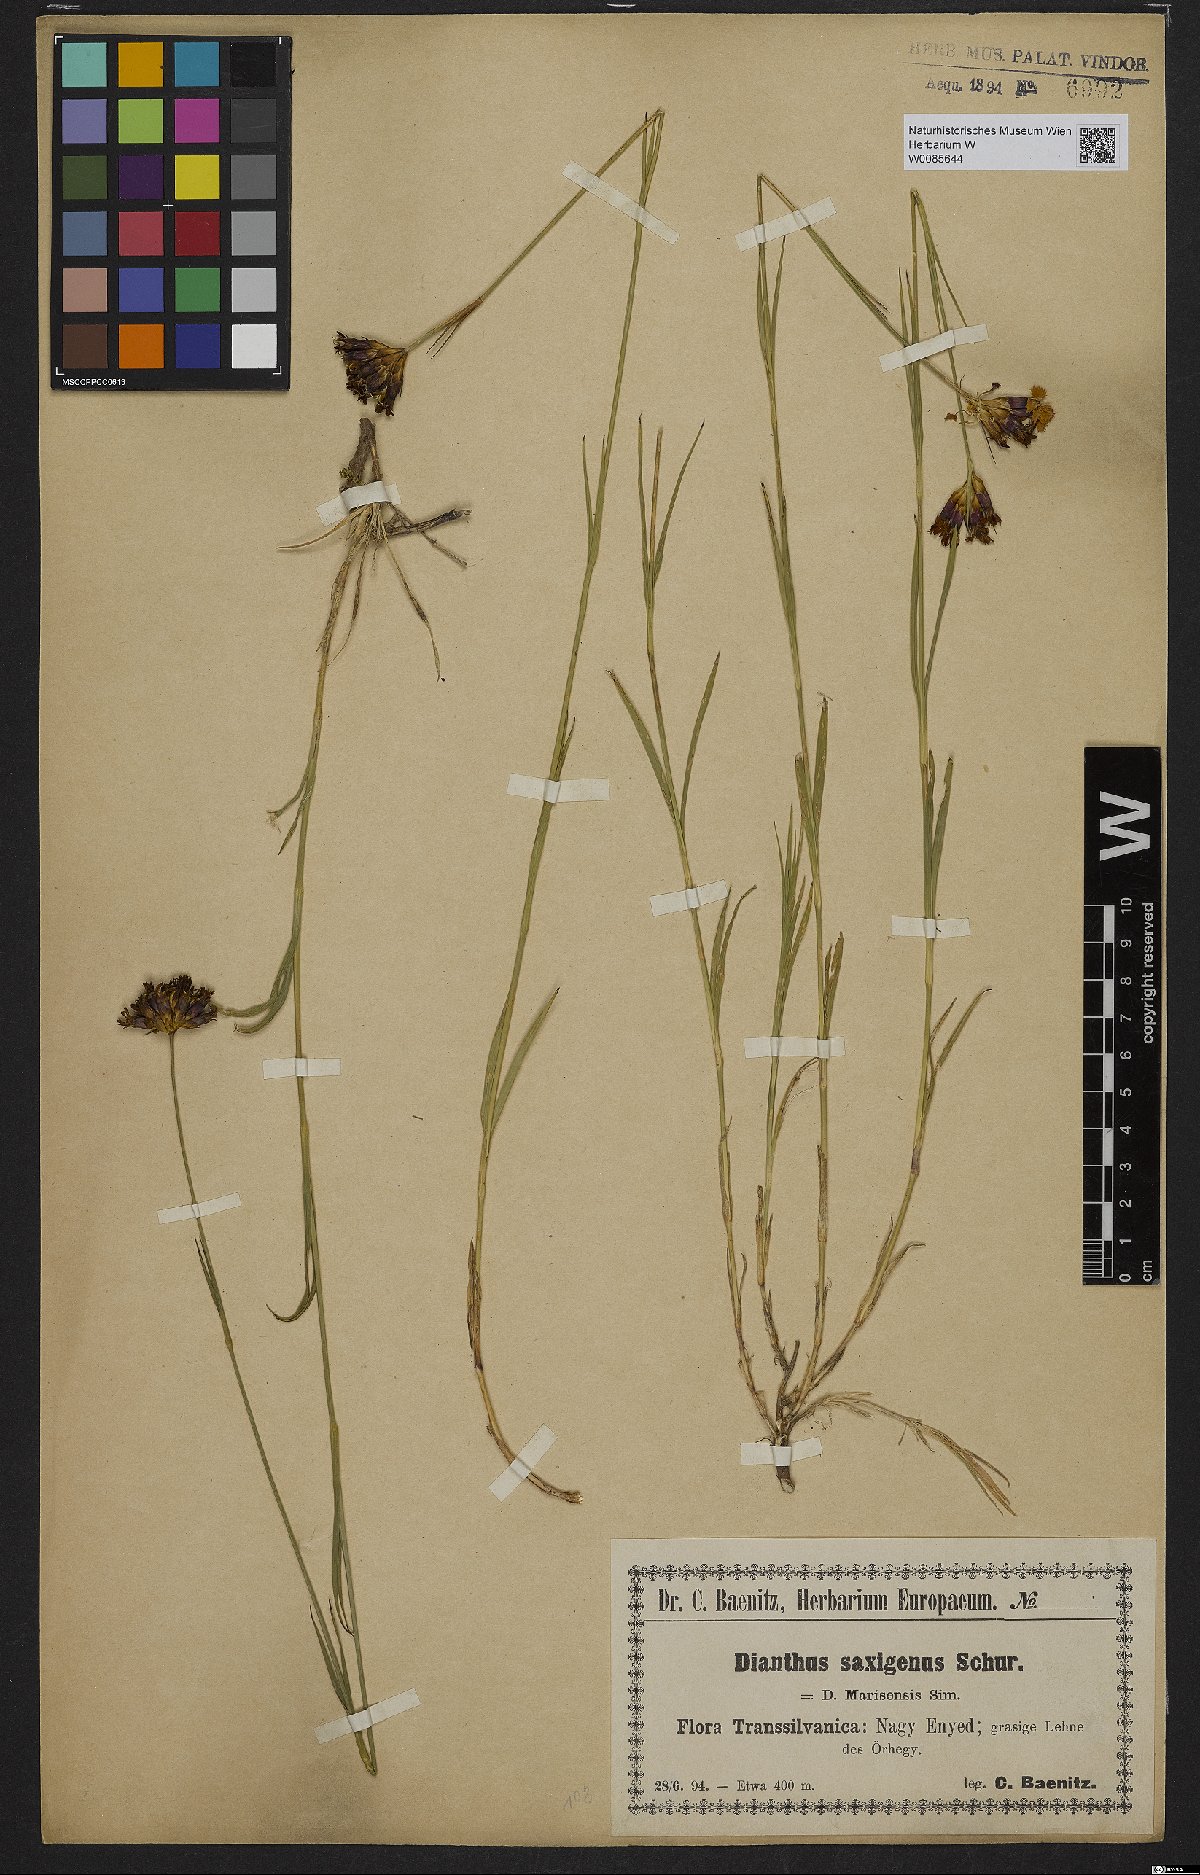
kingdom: Plantae
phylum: Tracheophyta
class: Magnoliopsida
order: Caryophyllales
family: Caryophyllaceae
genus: Dianthus
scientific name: Dianthus
